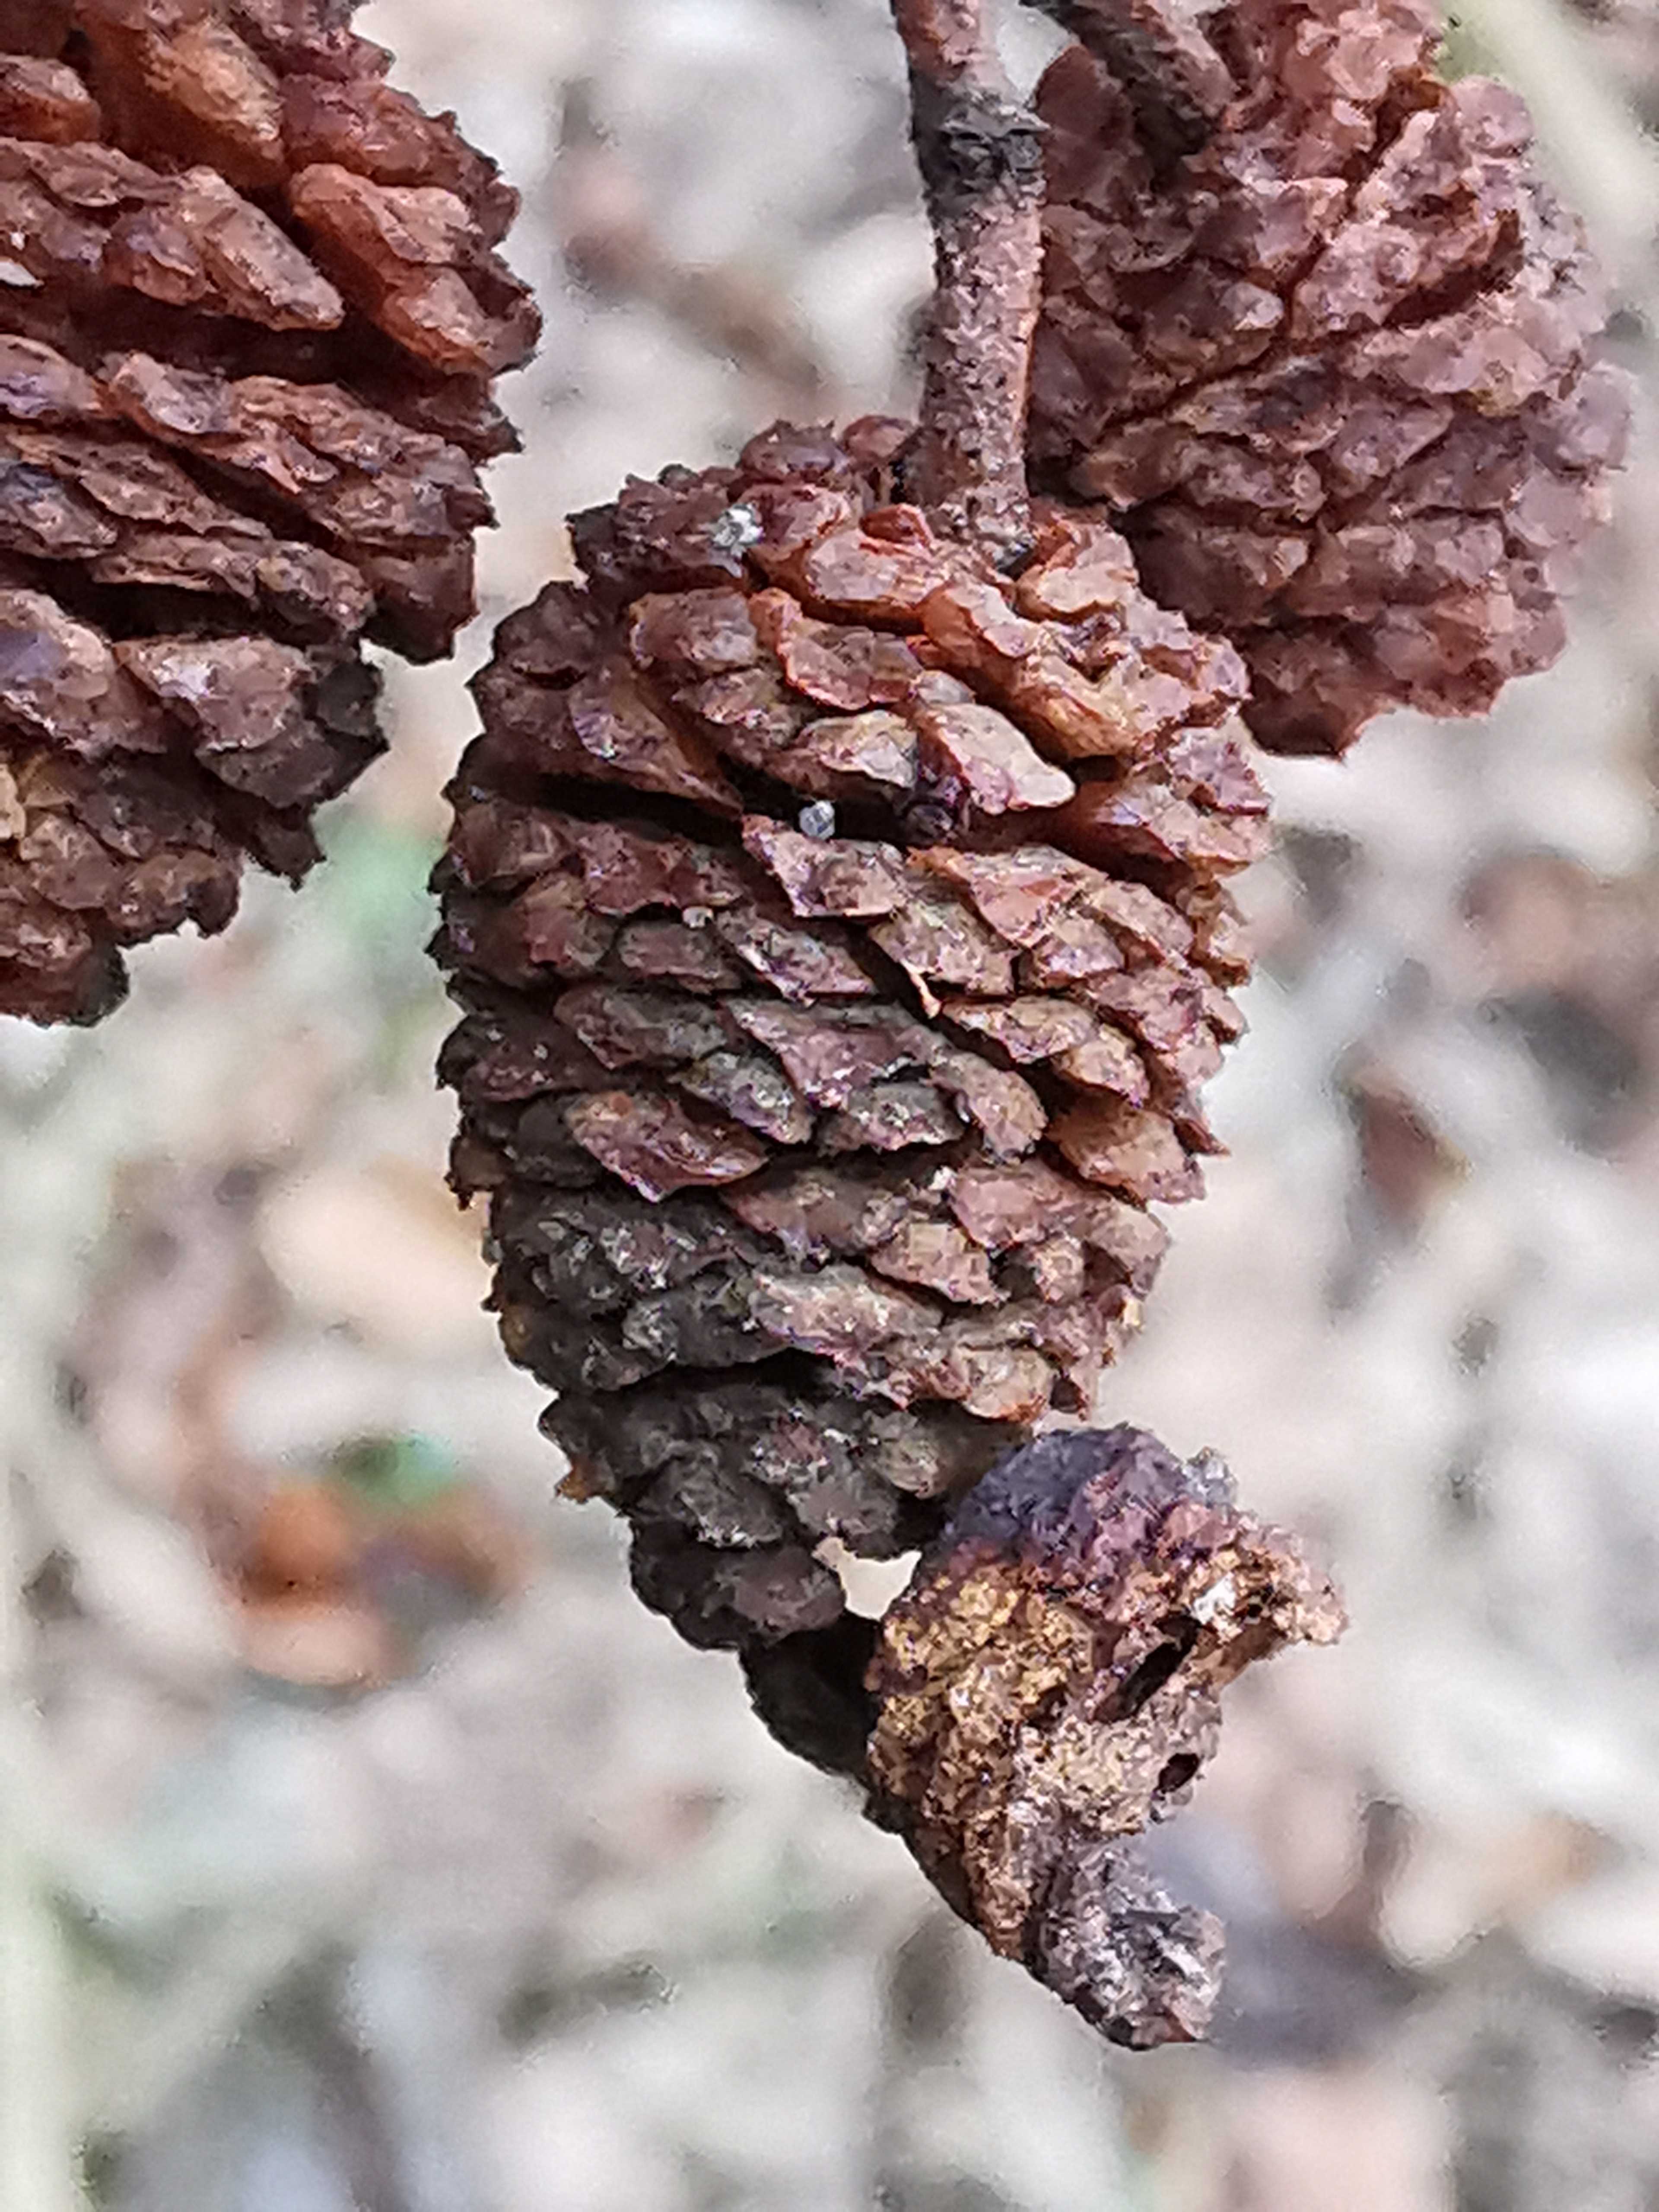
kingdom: Fungi
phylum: Ascomycota
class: Taphrinomycetes
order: Taphrinales
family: Taphrinaceae
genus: Taphrina
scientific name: Taphrina alni
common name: Alder tongue
